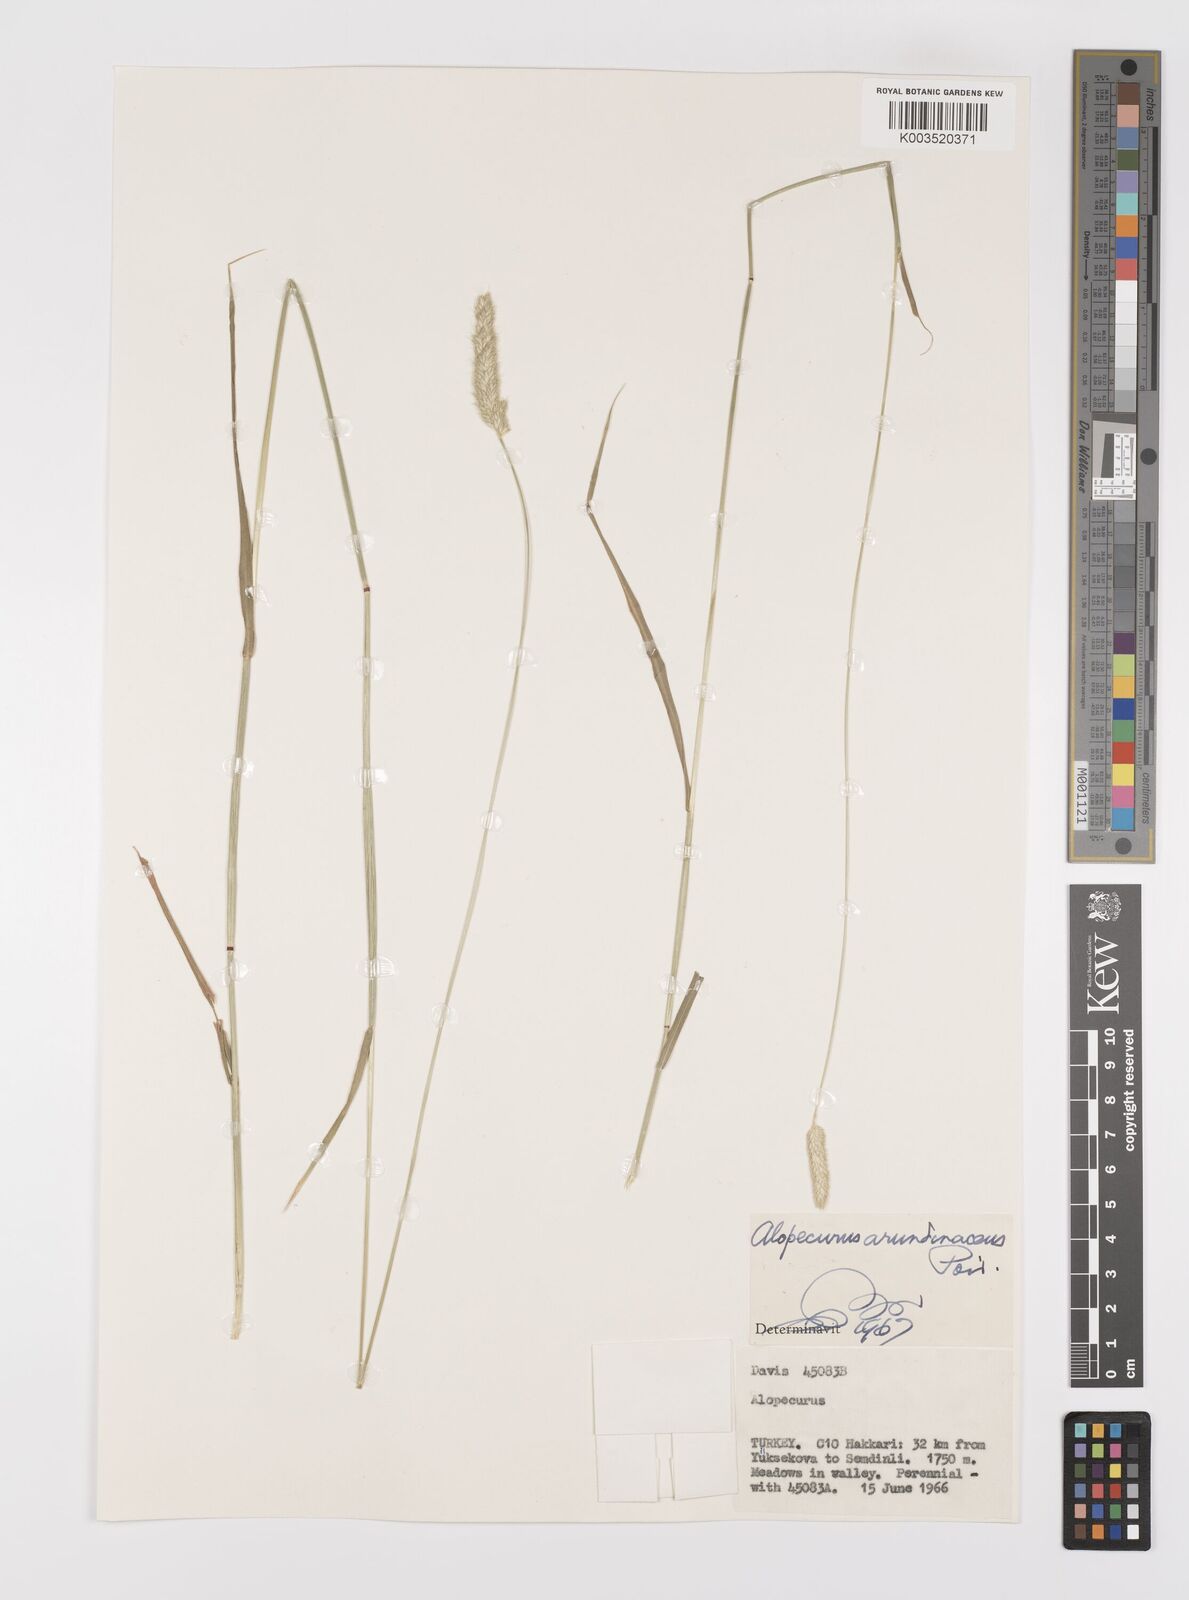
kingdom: Plantae
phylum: Tracheophyta
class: Liliopsida
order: Poales
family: Poaceae
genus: Alopecurus
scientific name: Alopecurus arundinaceus
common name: Creeping meadow foxtail
